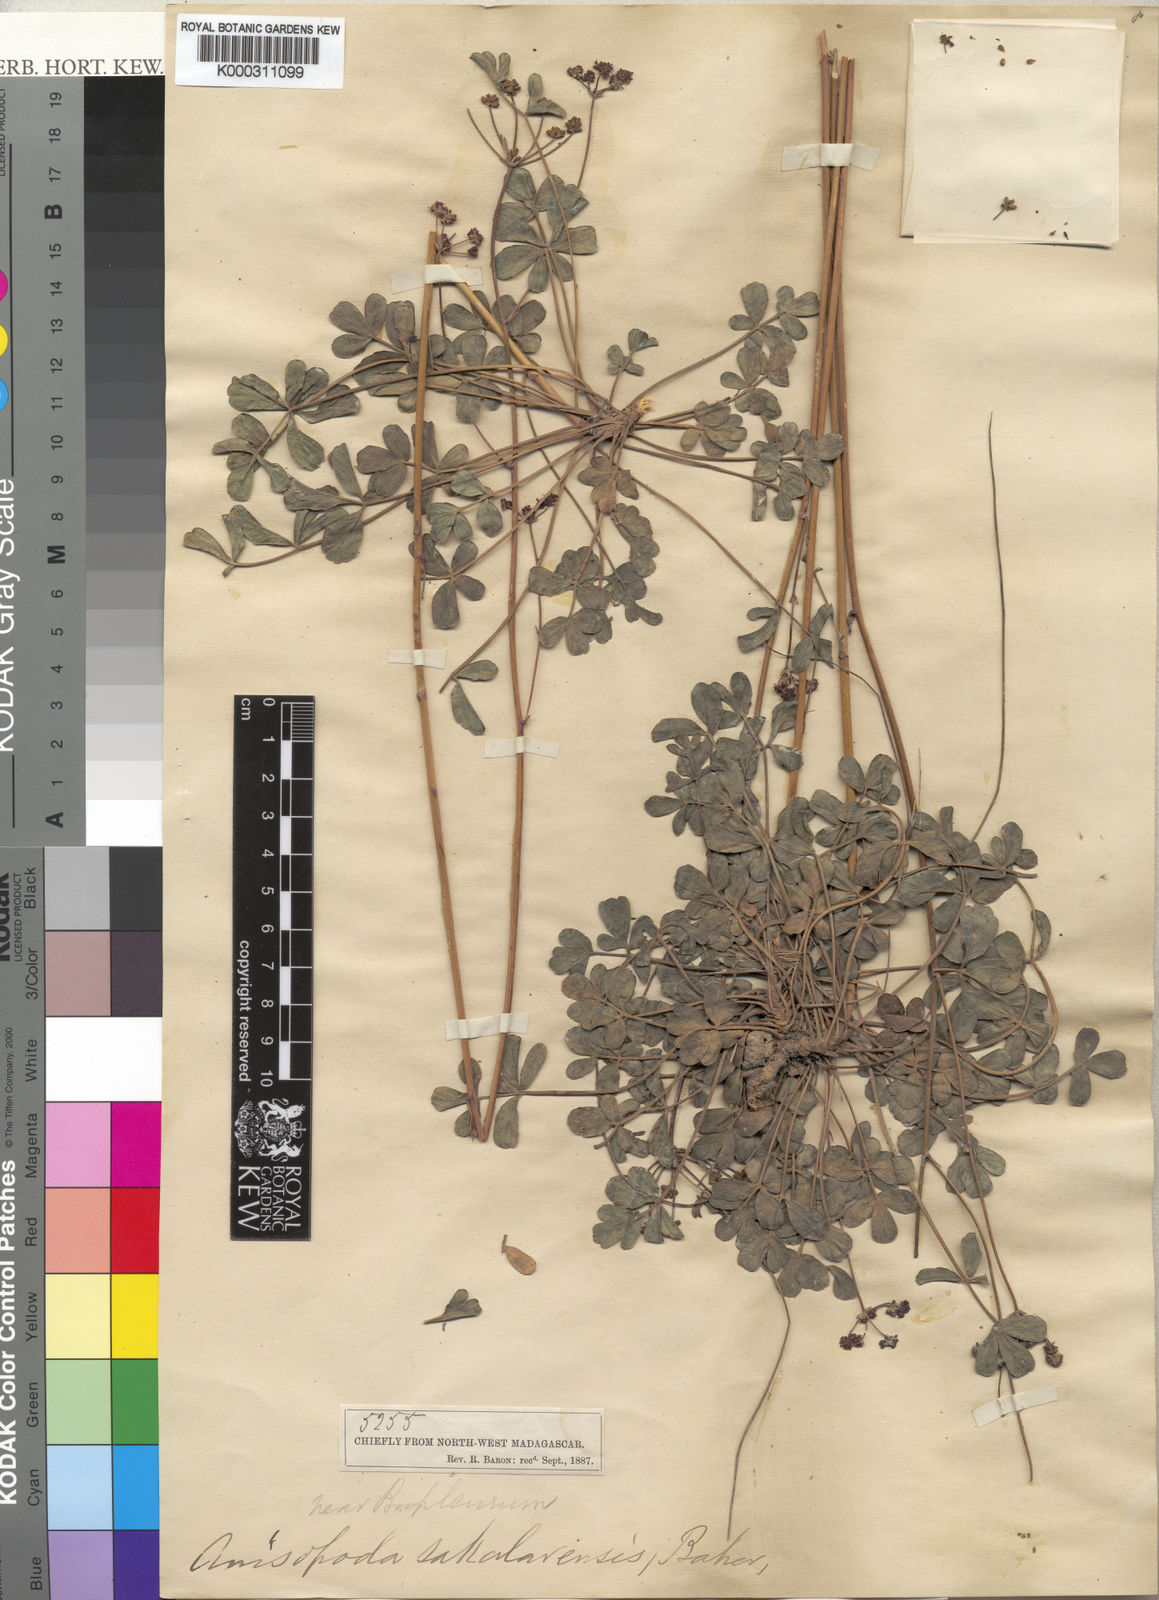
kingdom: Plantae
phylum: Tracheophyta
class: Magnoliopsida
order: Apiales
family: Apiaceae
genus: Anisopoda
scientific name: Anisopoda bupleuroides
